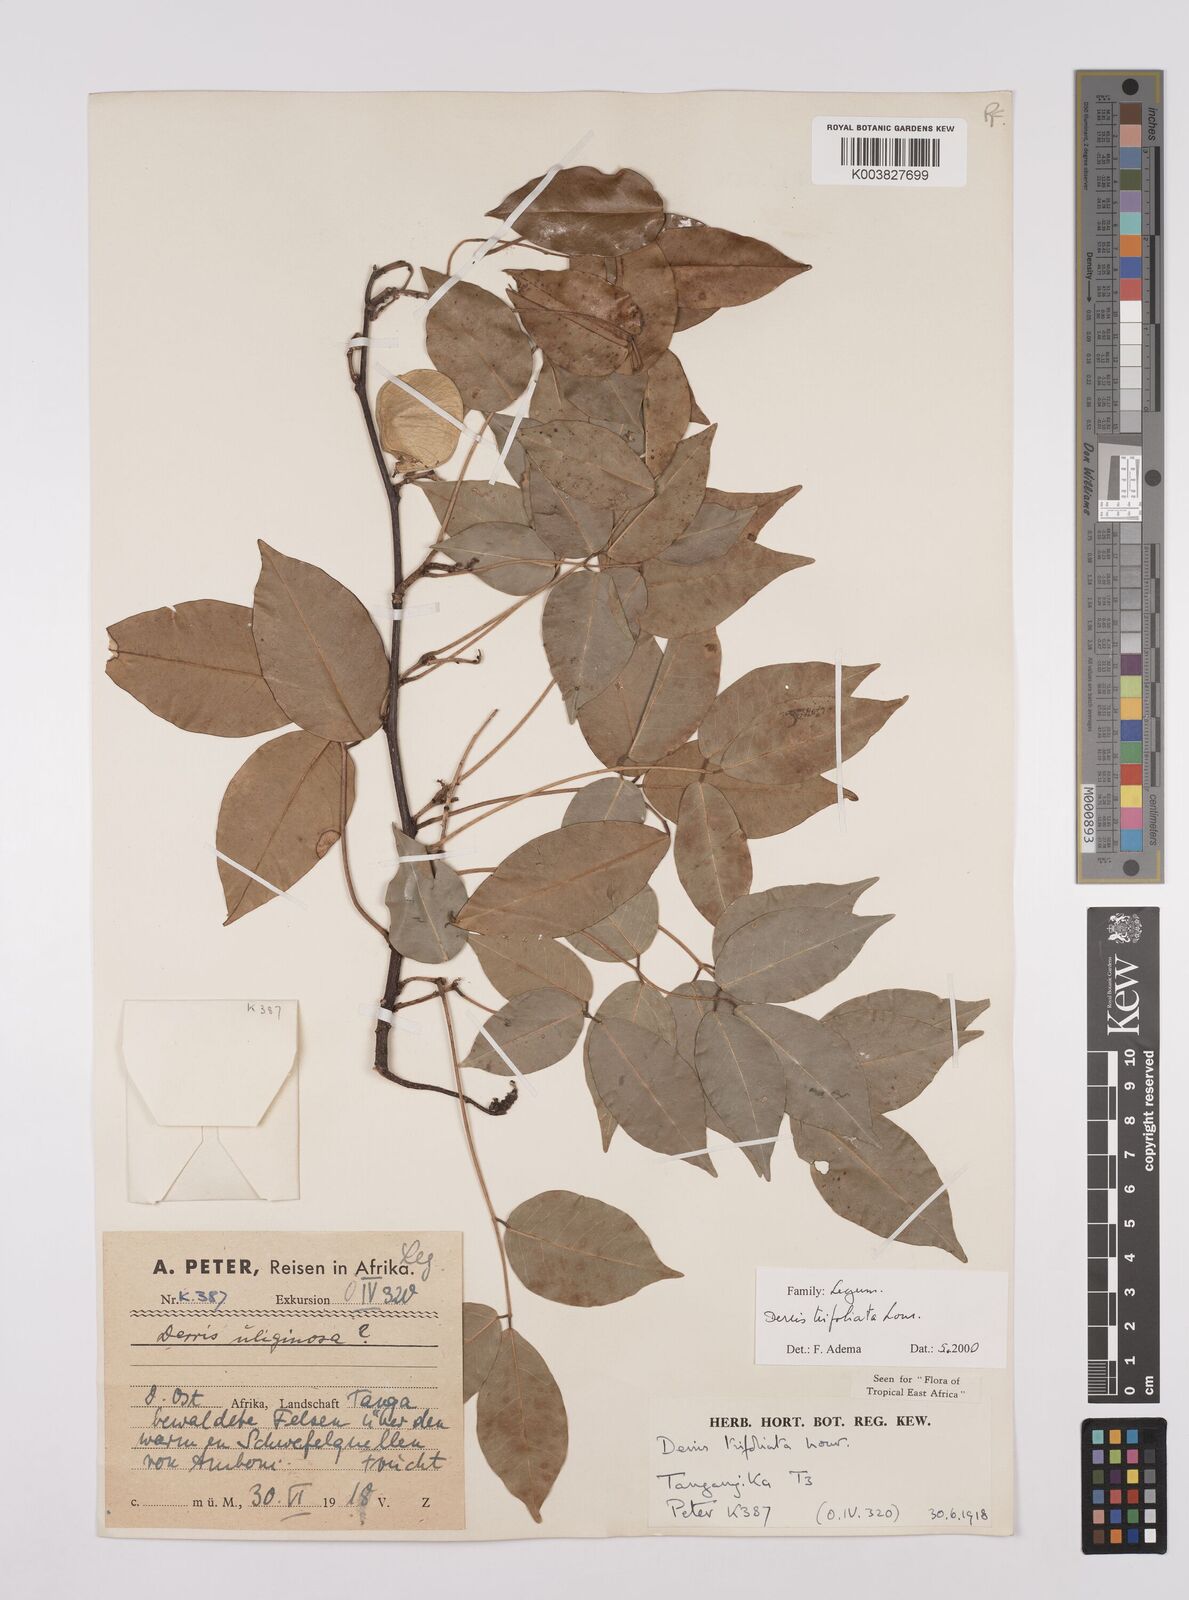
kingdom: Plantae
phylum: Tracheophyta
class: Magnoliopsida
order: Fabales
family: Fabaceae
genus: Derris
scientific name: Derris trifoliata
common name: Three-leaf derris
